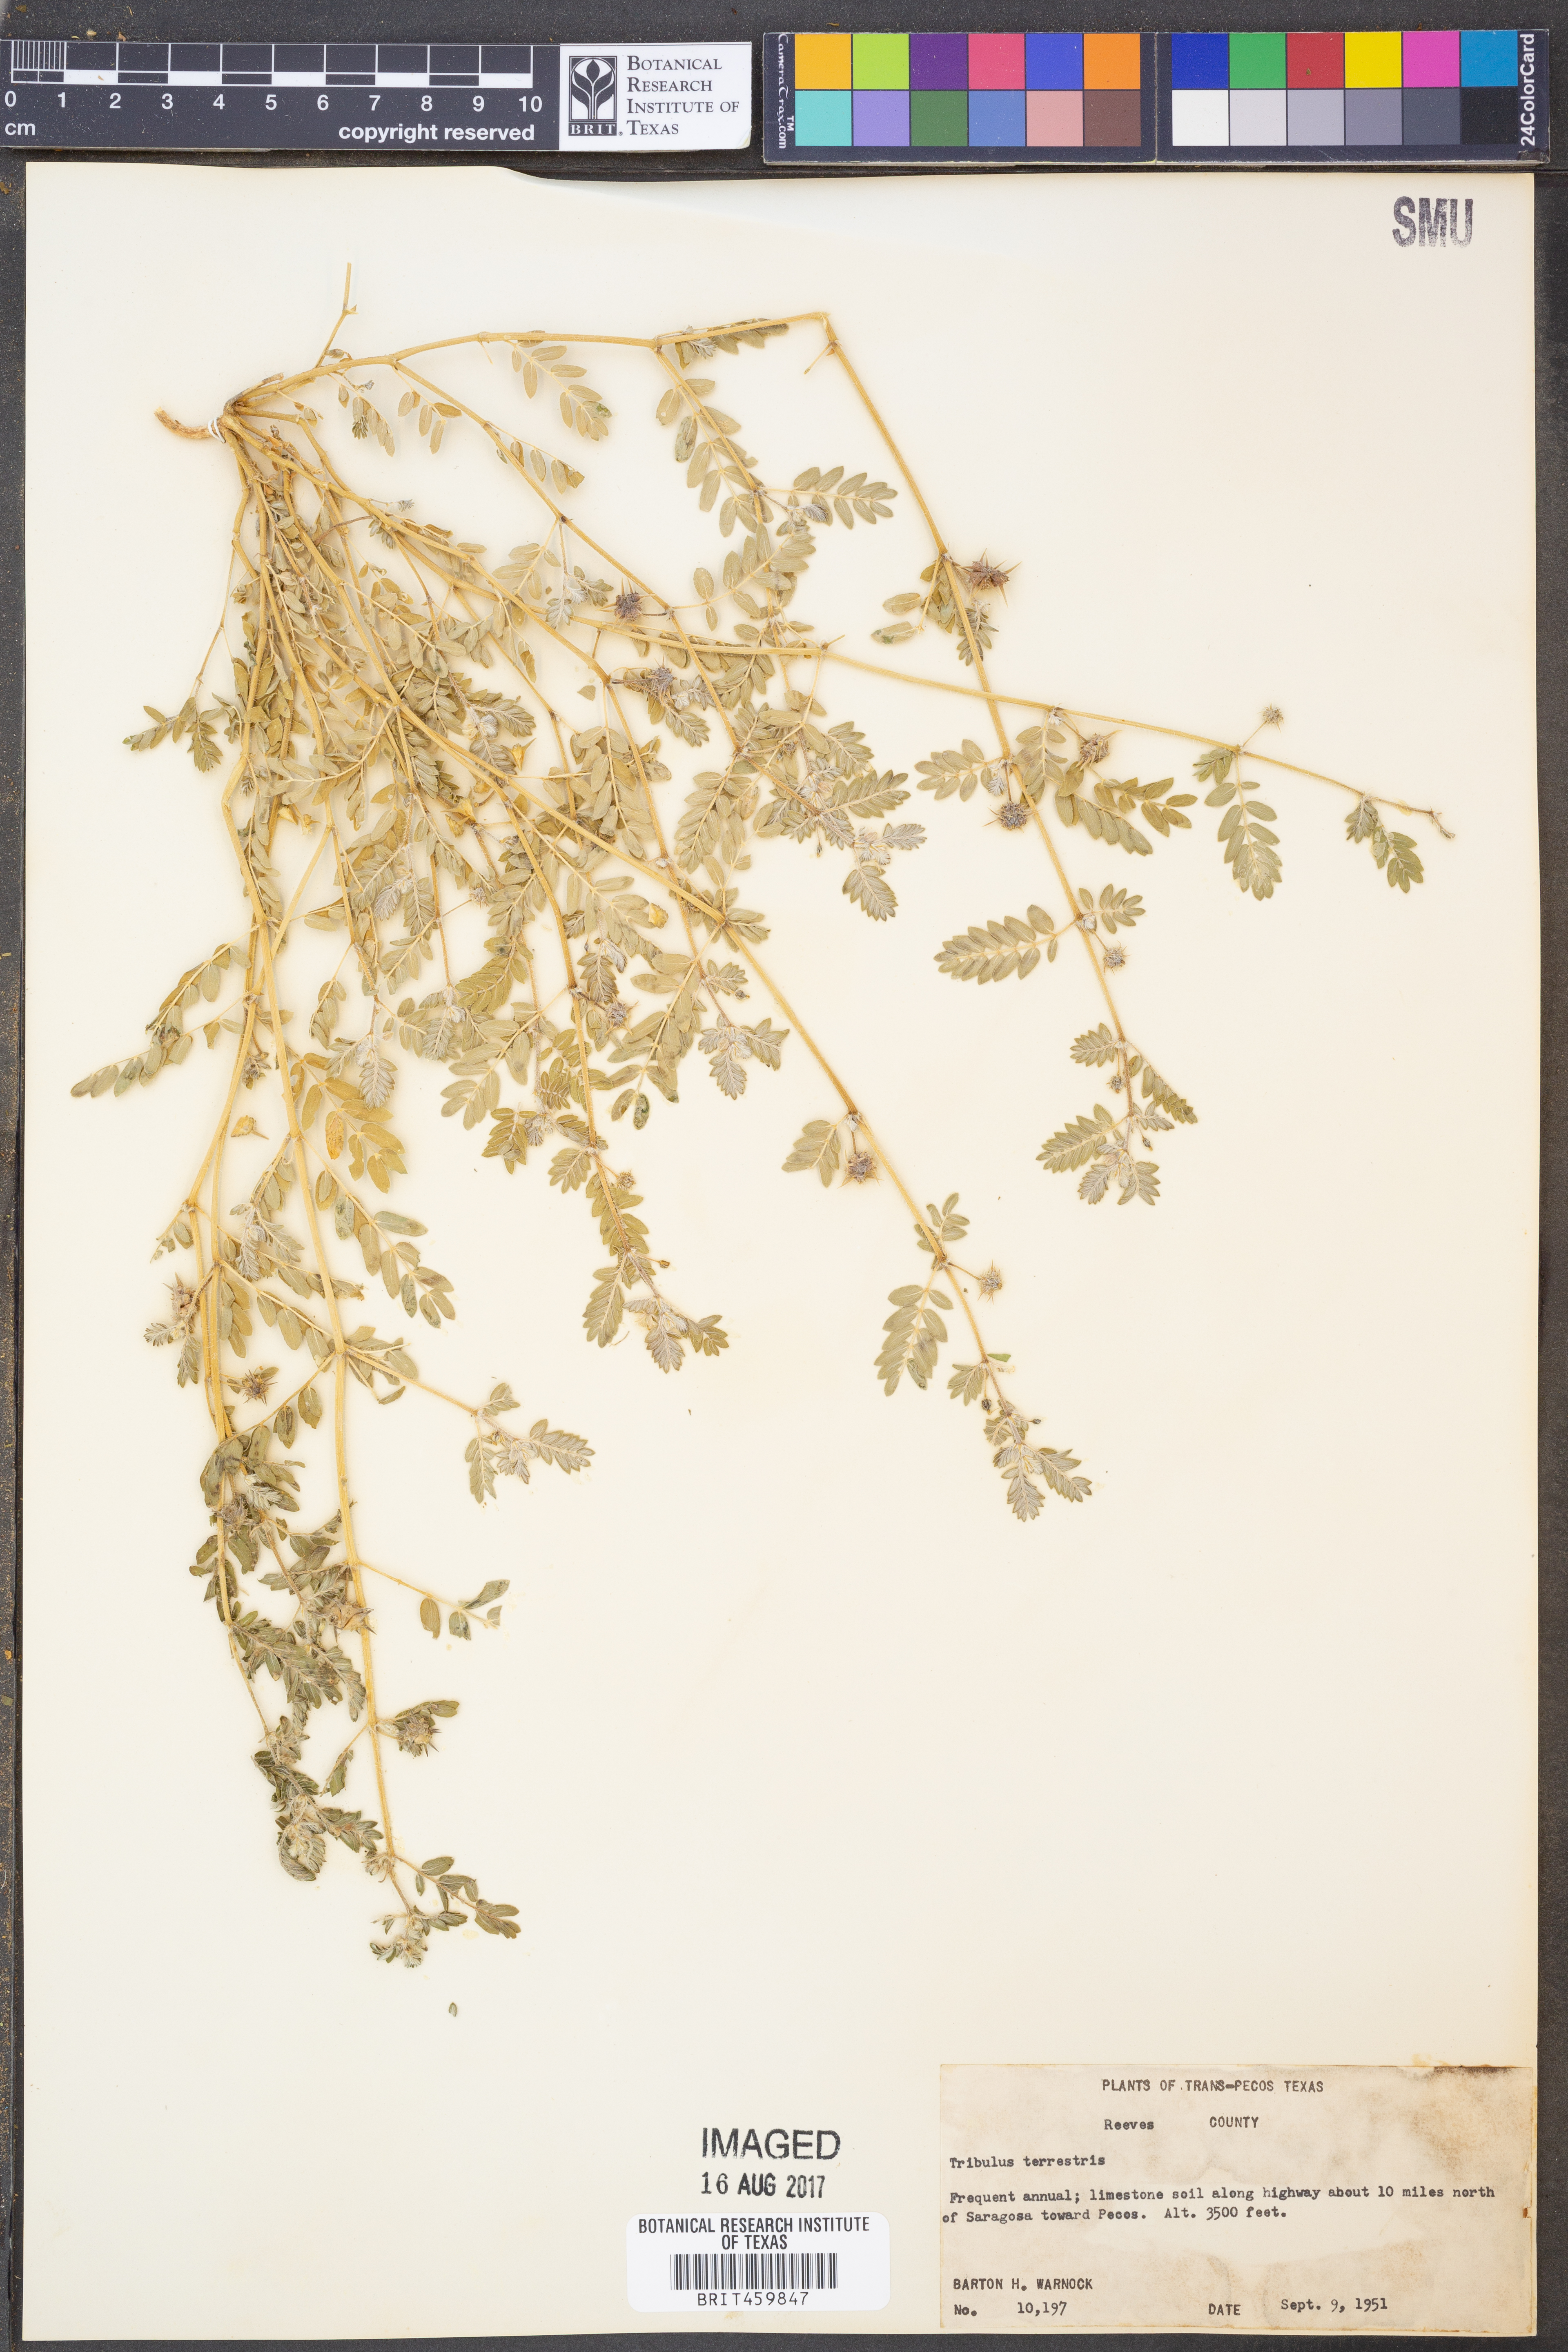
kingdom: Plantae
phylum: Tracheophyta
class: Magnoliopsida
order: Zygophyllales
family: Zygophyllaceae
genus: Tribulus
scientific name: Tribulus terrestris
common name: Puncturevine
